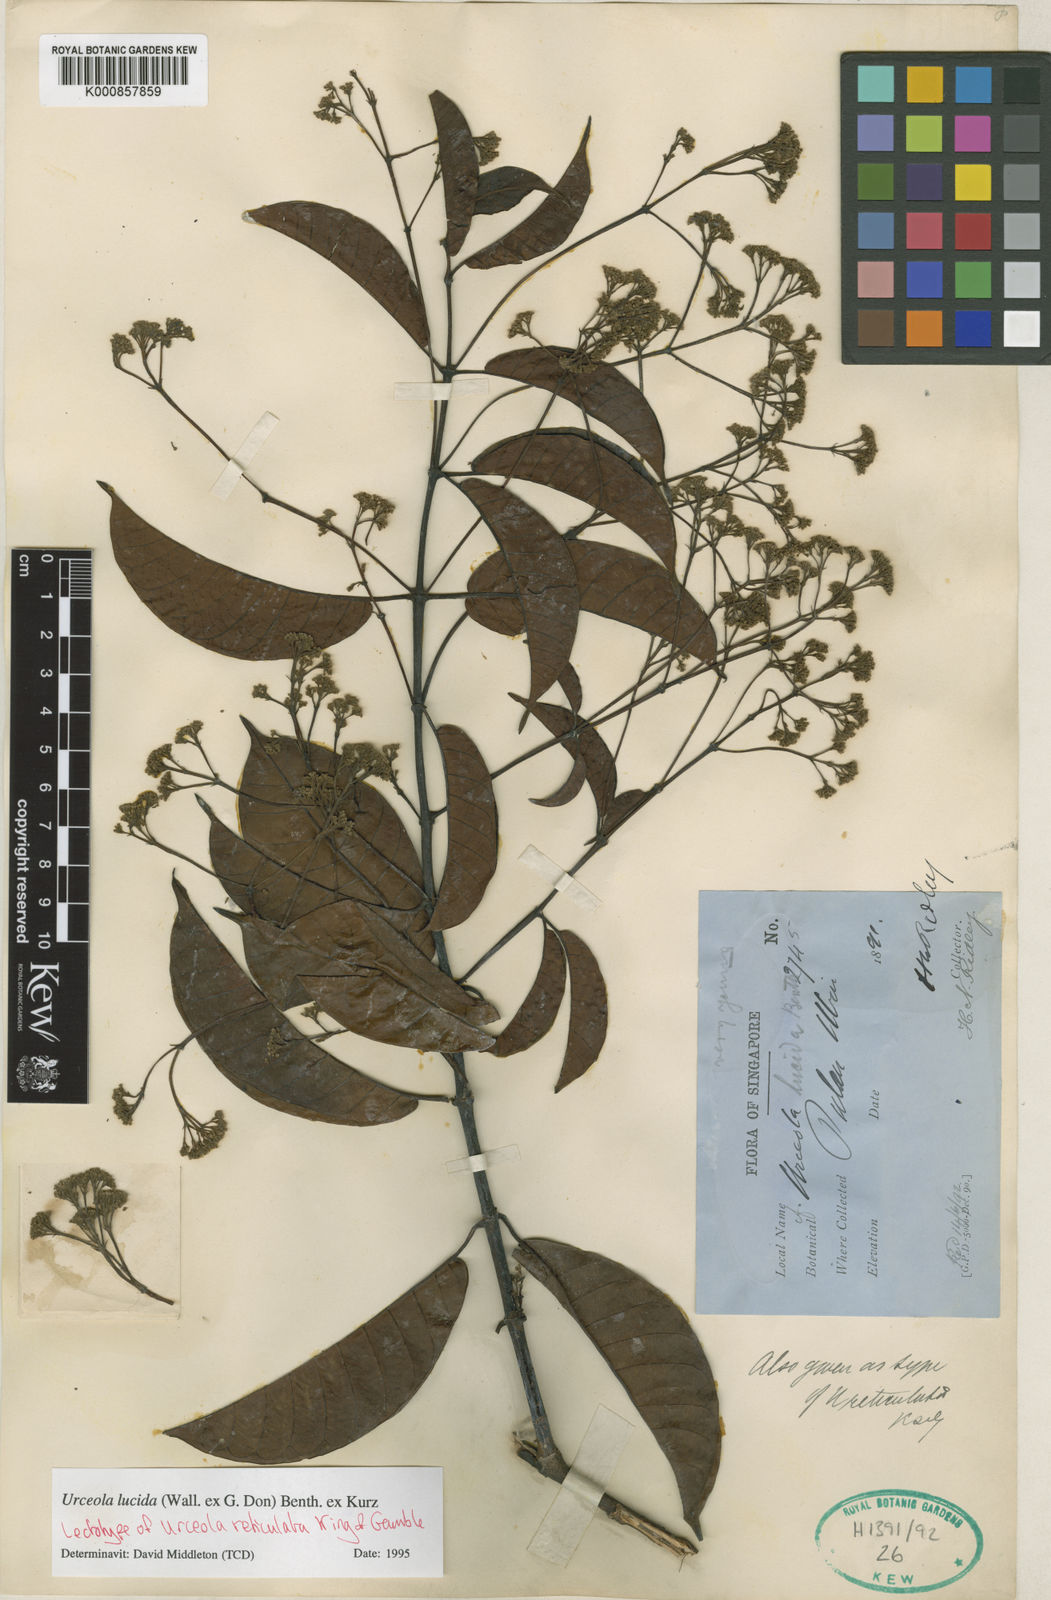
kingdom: Plantae
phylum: Tracheophyta
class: Magnoliopsida
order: Gentianales
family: Apocynaceae
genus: Urceola
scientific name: Urceola lucida
